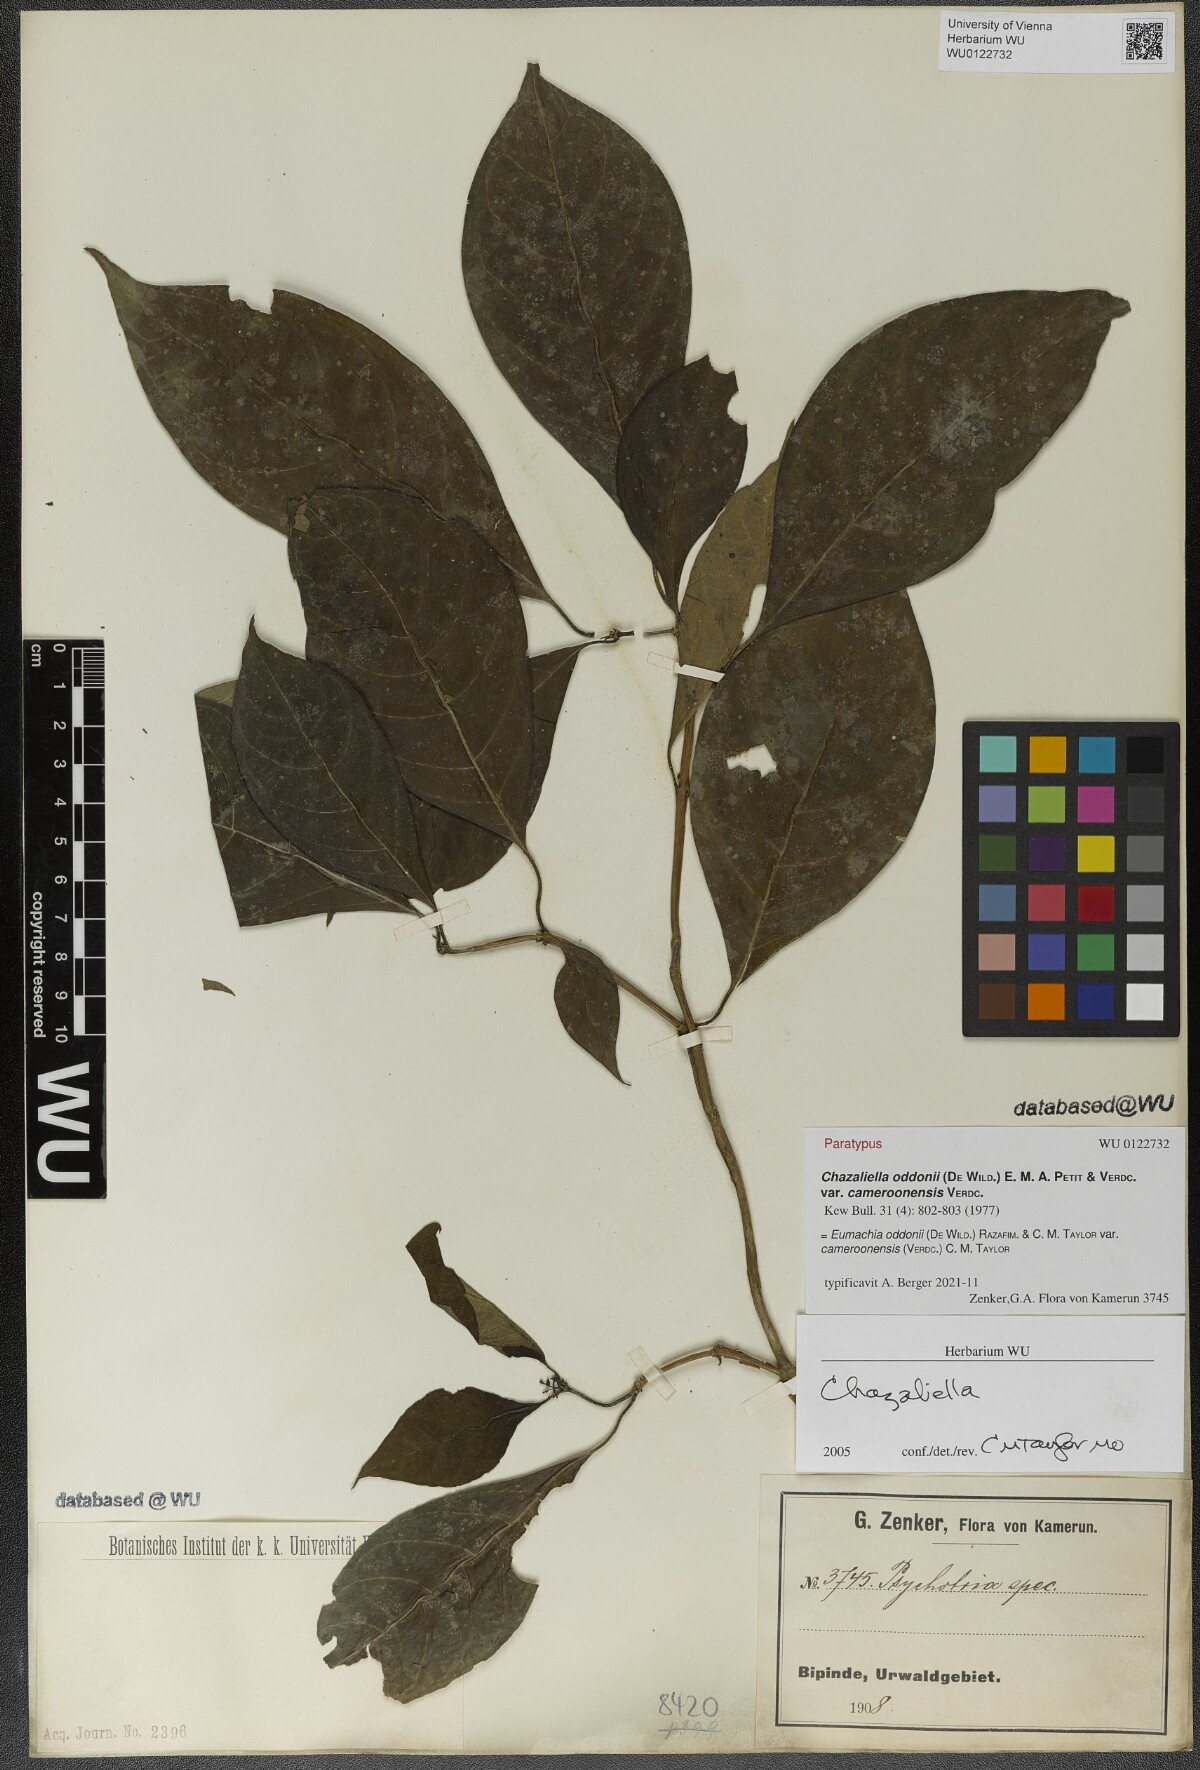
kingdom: Plantae
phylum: Tracheophyta
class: Magnoliopsida
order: Gentianales
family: Rubiaceae
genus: Eumachia
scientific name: Eumachia oddonii
